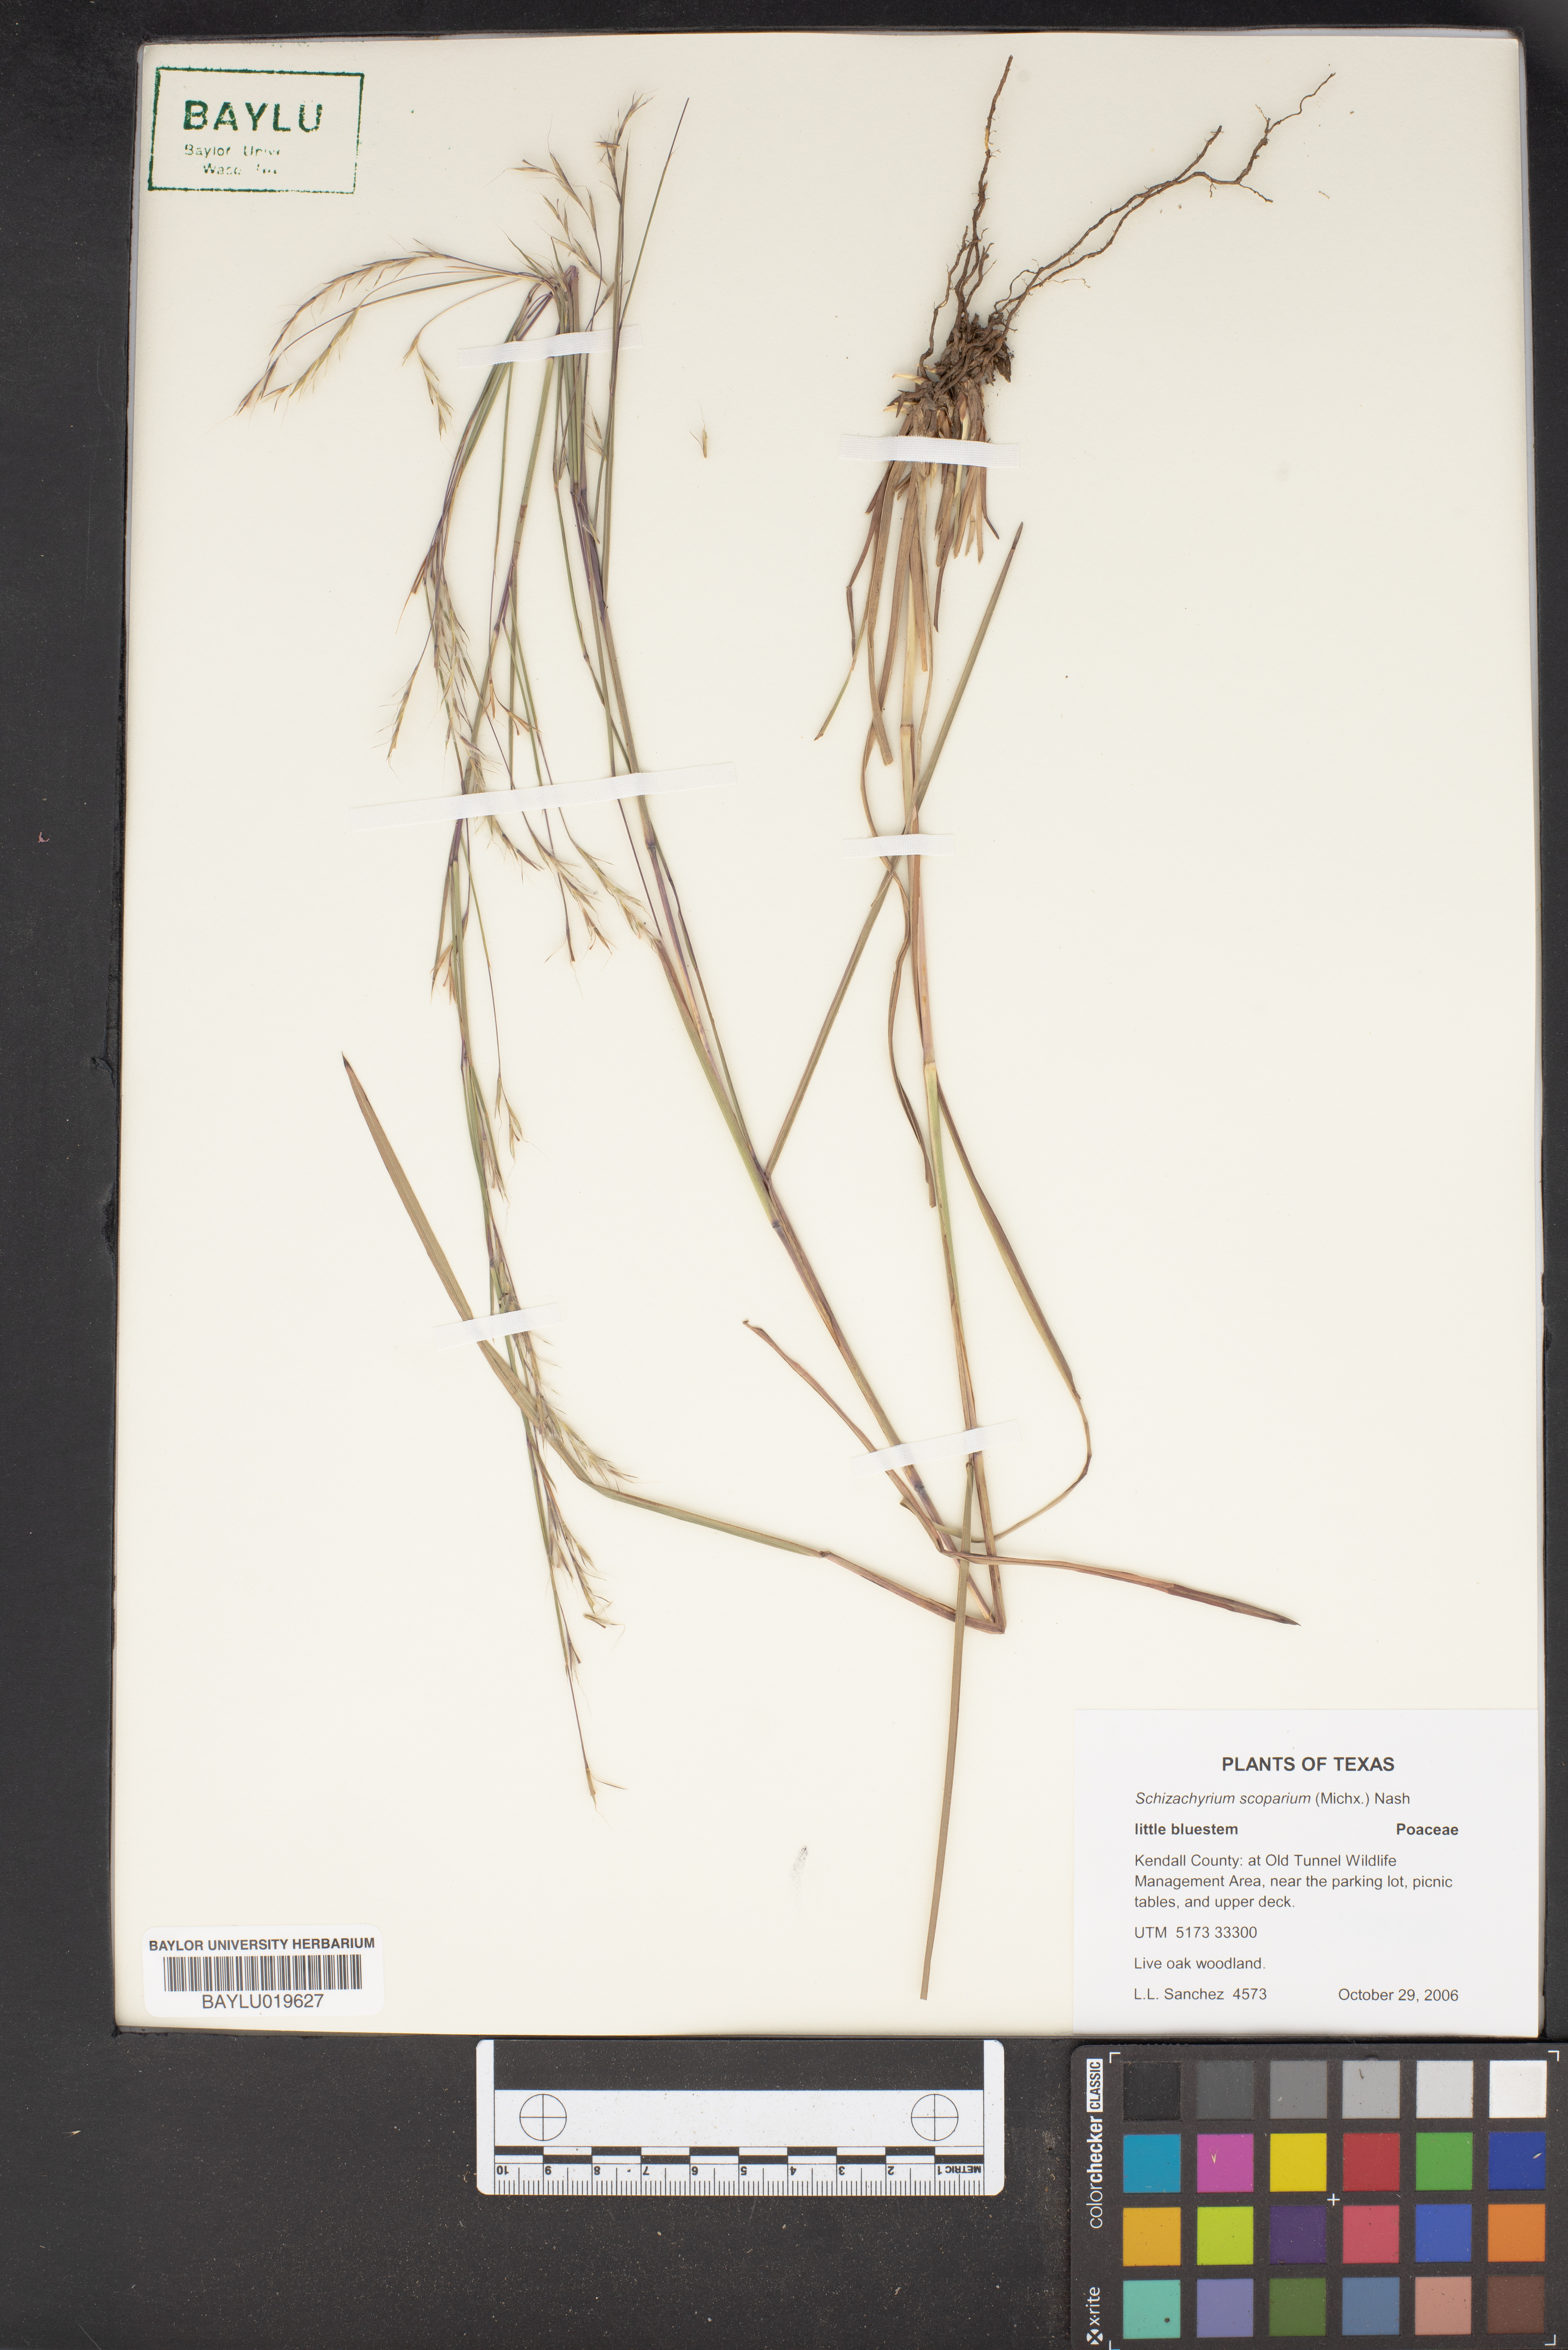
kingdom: Plantae
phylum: Tracheophyta
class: Liliopsida
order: Poales
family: Poaceae
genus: Schizachyrium
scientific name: Schizachyrium scoparium
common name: Little bluestem
